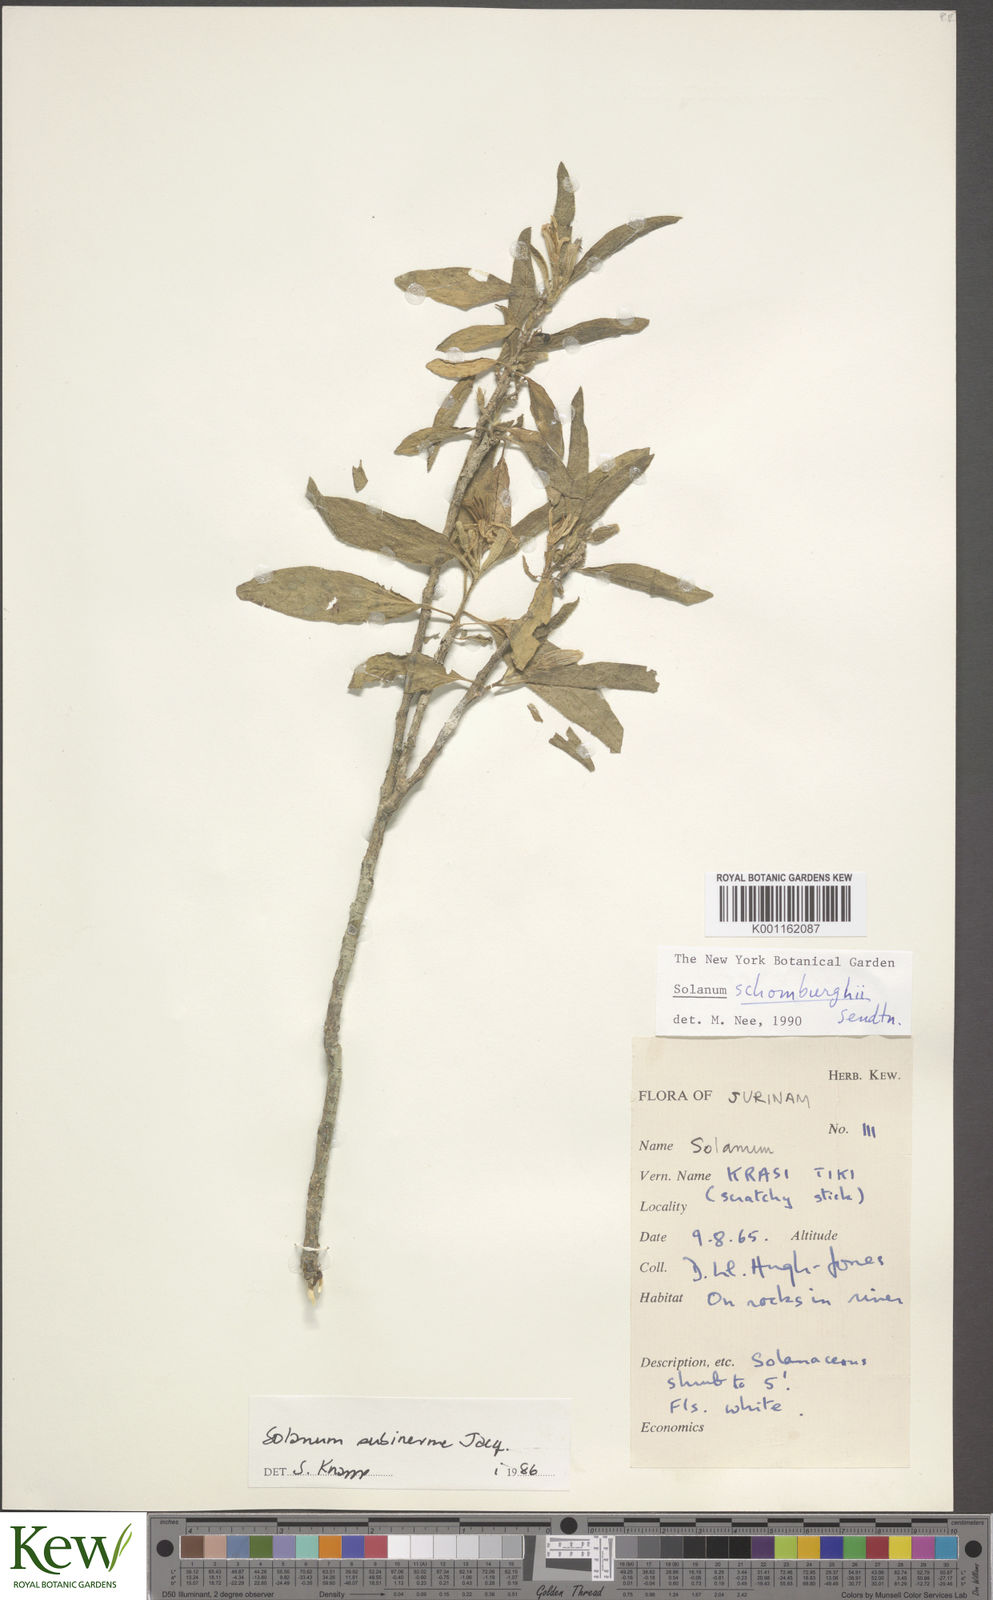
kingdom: Plantae
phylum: Tracheophyta
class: Magnoliopsida
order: Solanales
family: Solanaceae
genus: Solanum
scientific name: Solanum
